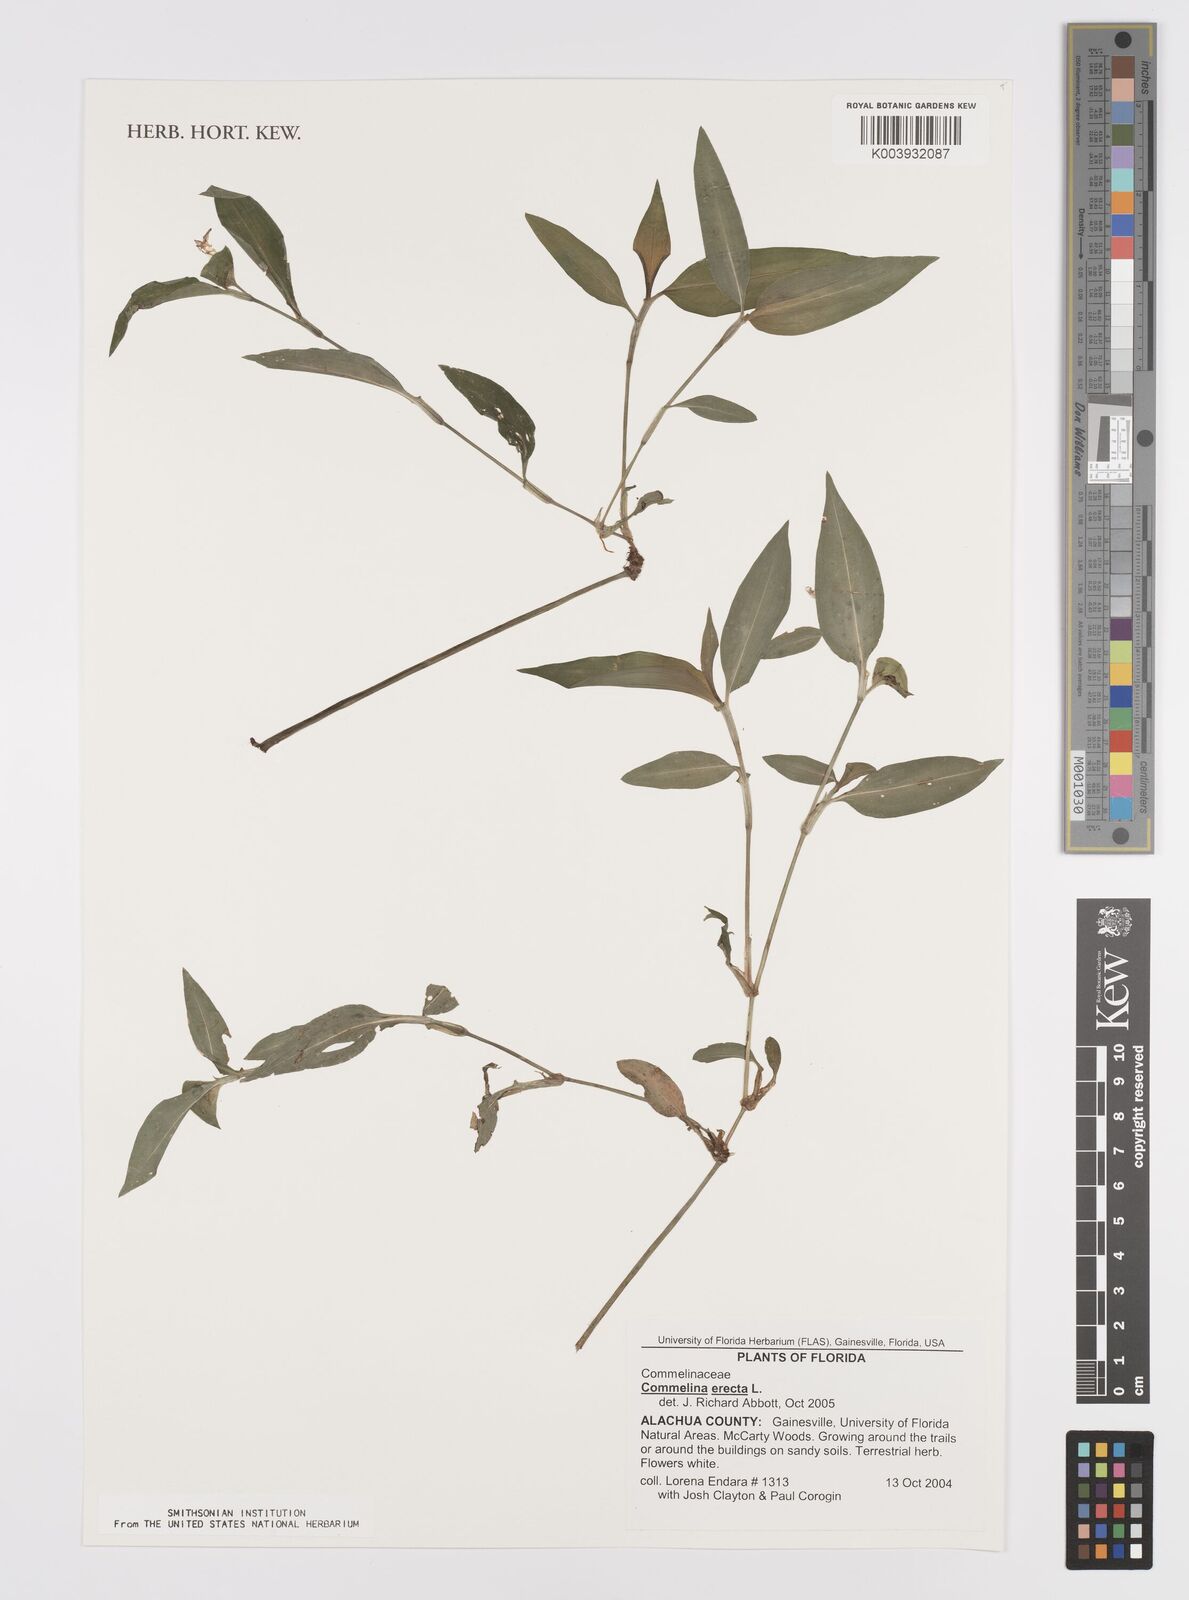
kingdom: Plantae
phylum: Tracheophyta
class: Liliopsida
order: Commelinales
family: Commelinaceae
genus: Commelina
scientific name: Commelina erecta
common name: Blousel blommetjie
